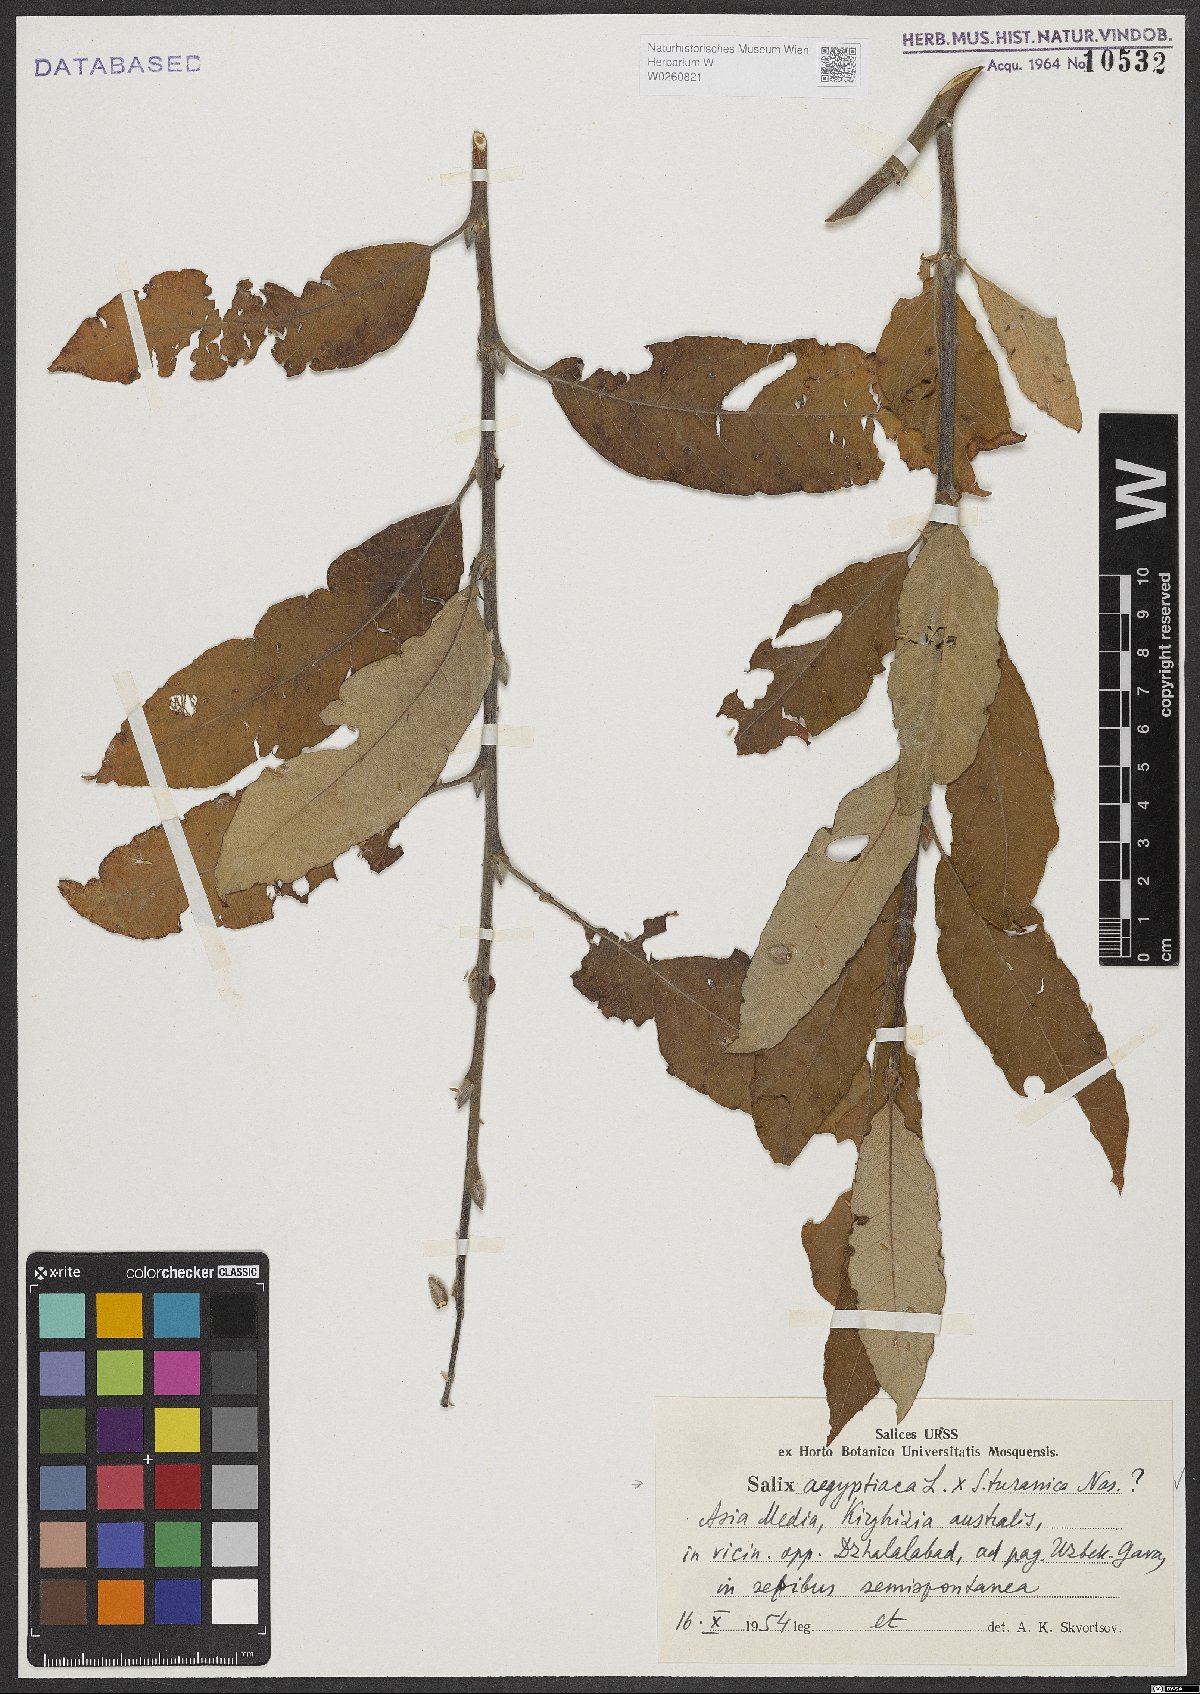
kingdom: Plantae
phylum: Tracheophyta
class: Magnoliopsida
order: Malpighiales
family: Salicaceae
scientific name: Salicaceae
